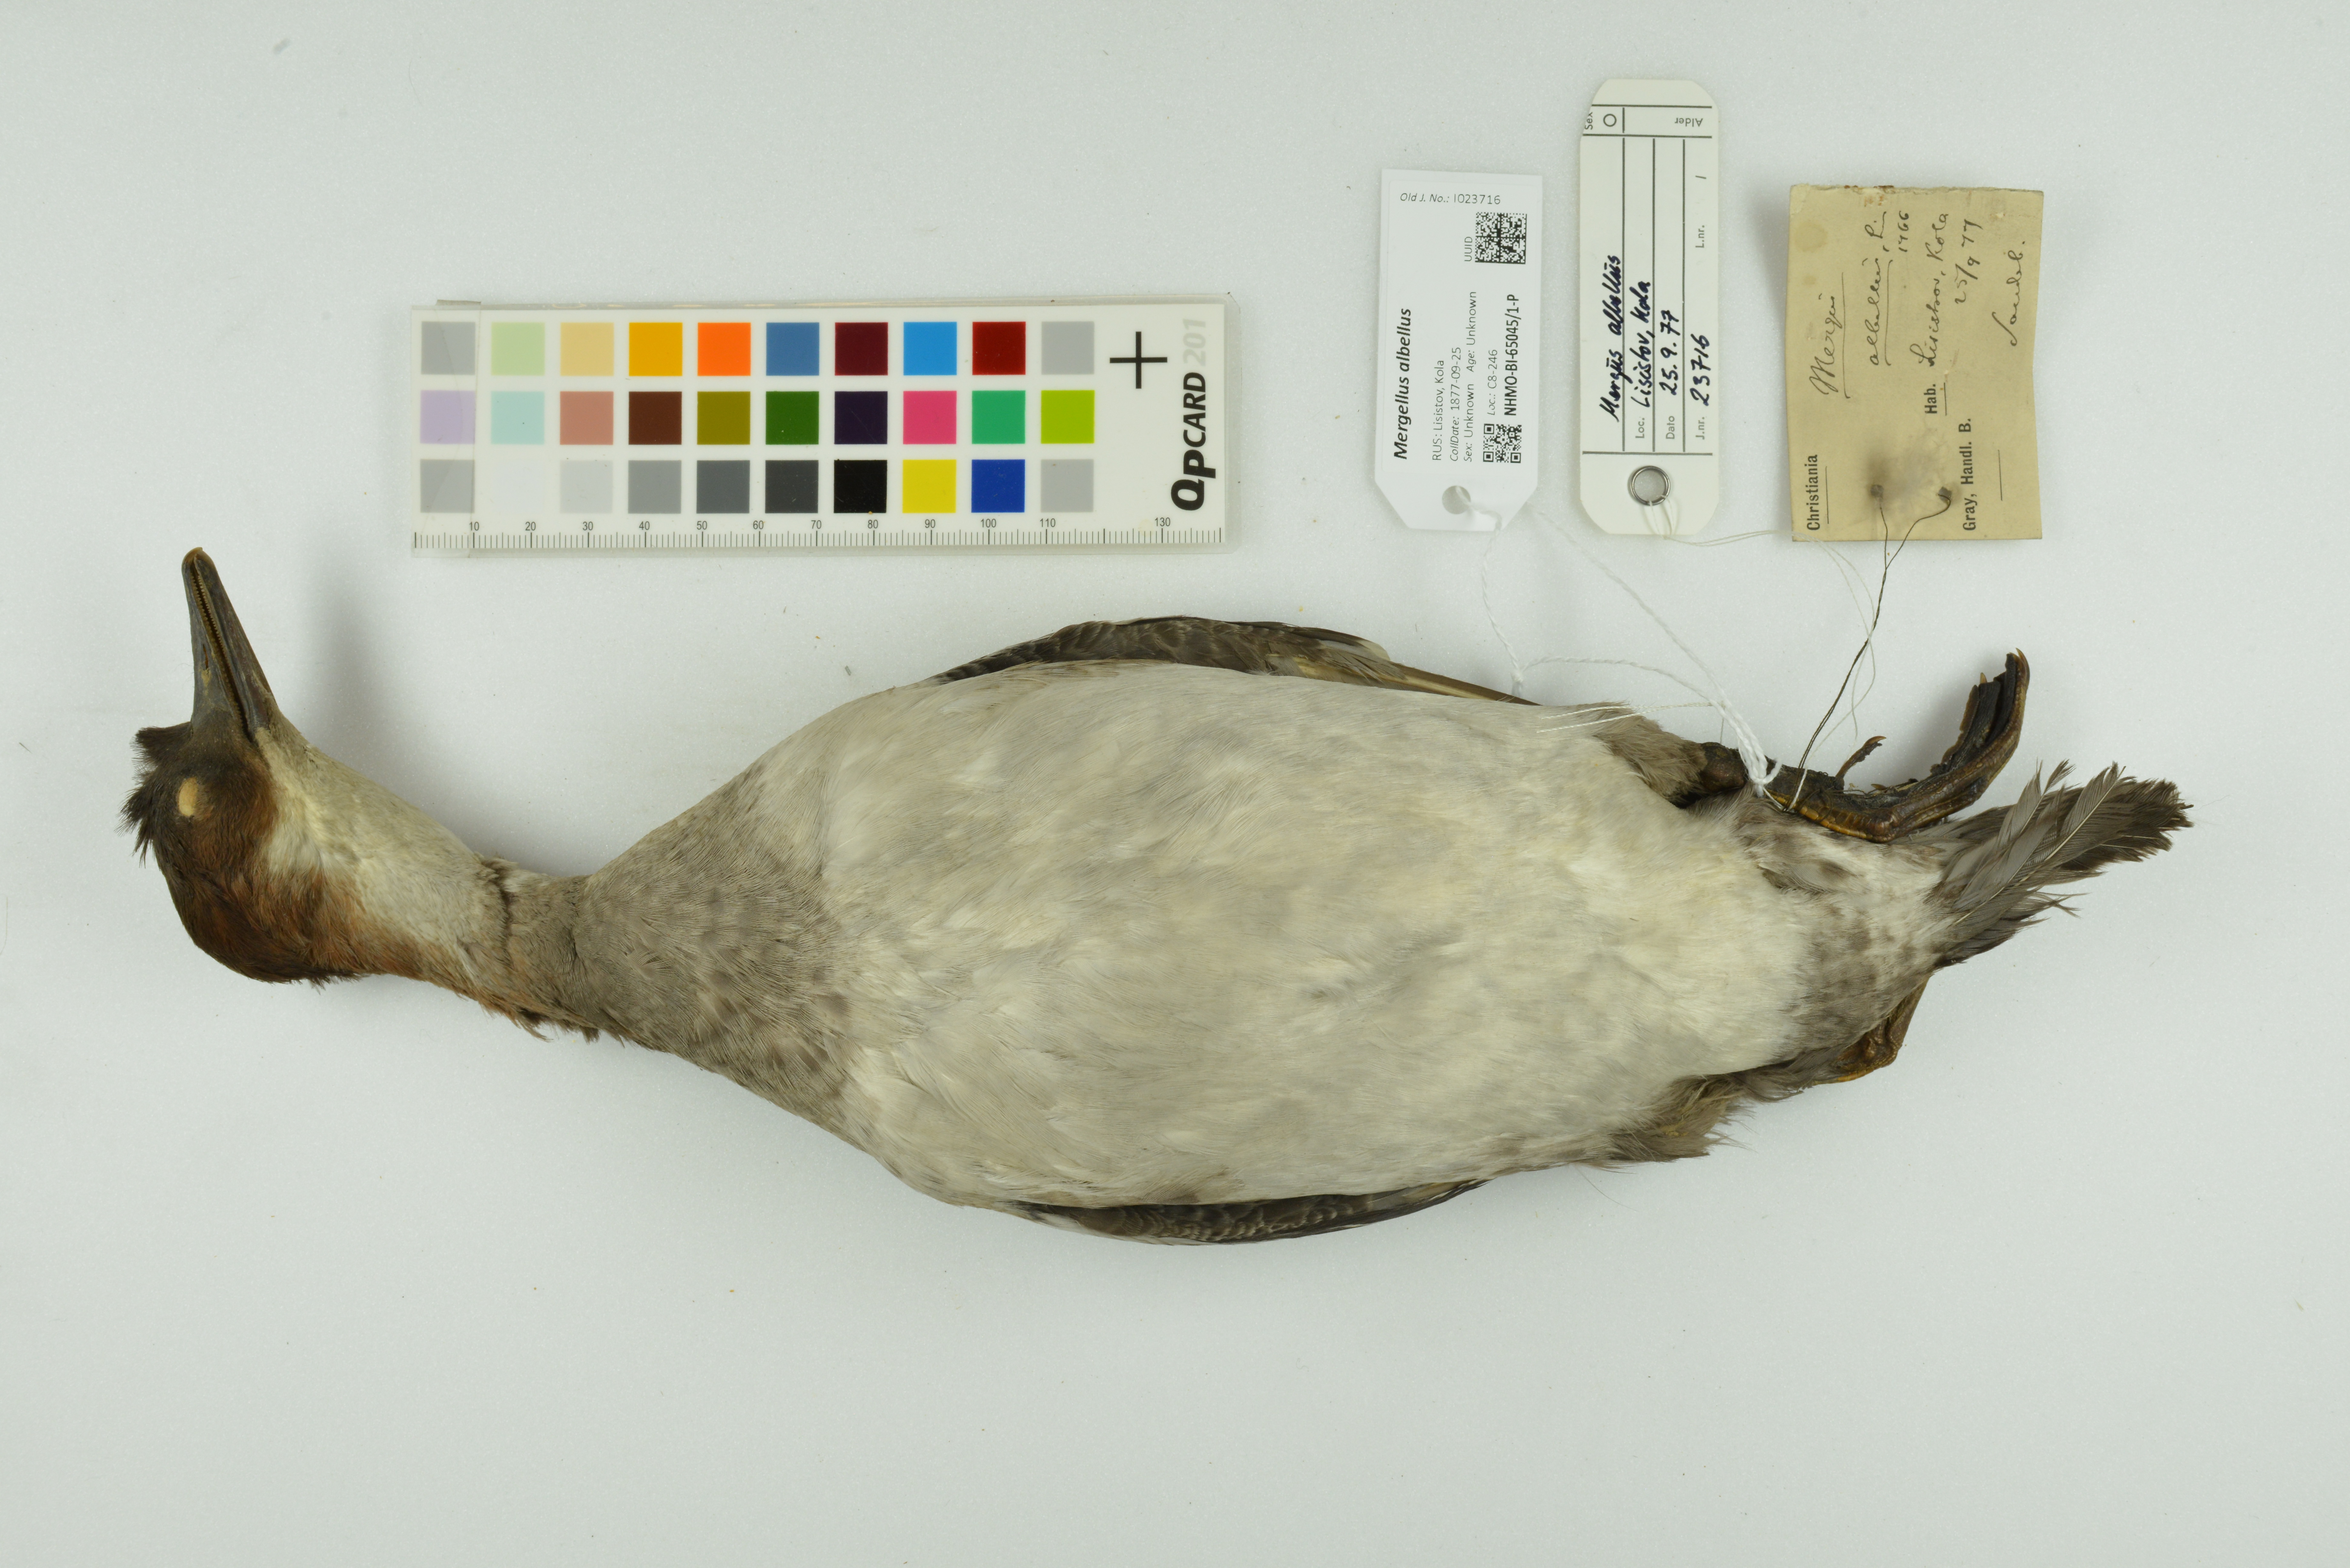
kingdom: Animalia
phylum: Chordata
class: Aves
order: Anseriformes
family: Anatidae
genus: Mergellus
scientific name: Mergellus albellus
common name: Smew
